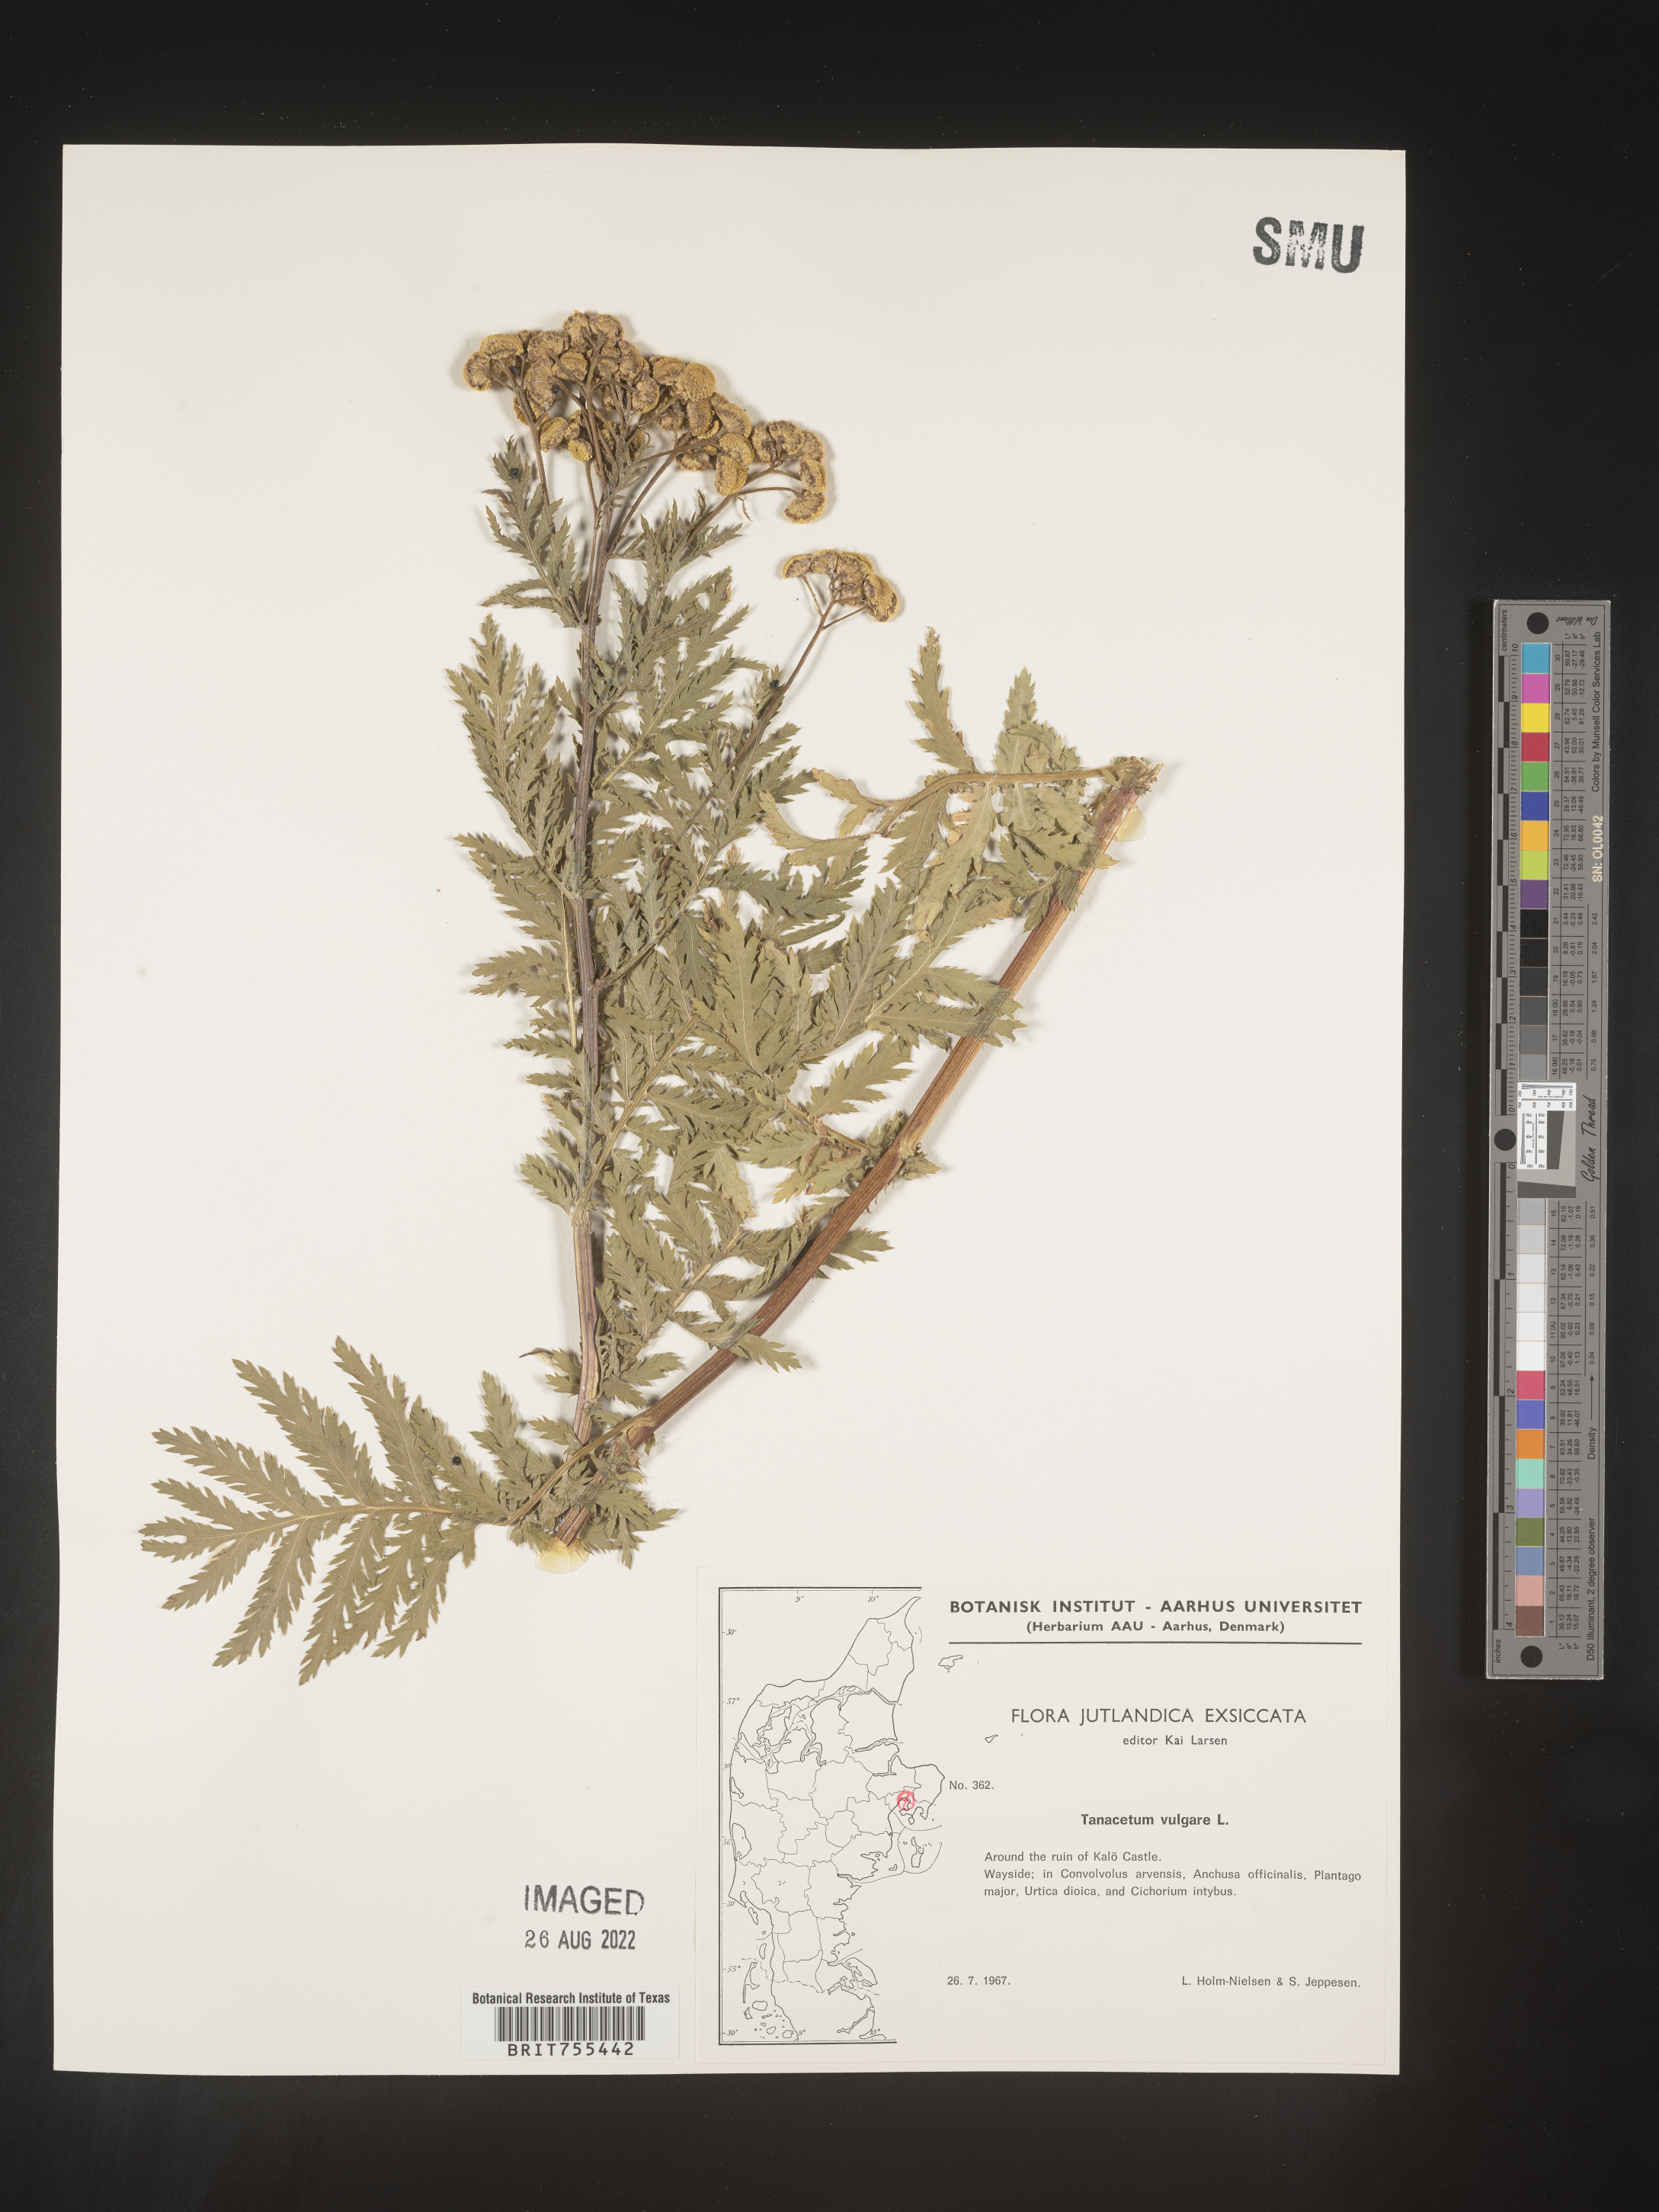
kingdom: Plantae
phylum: Tracheophyta
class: Magnoliopsida
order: Asterales
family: Asteraceae
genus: Tanacetum
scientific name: Tanacetum
